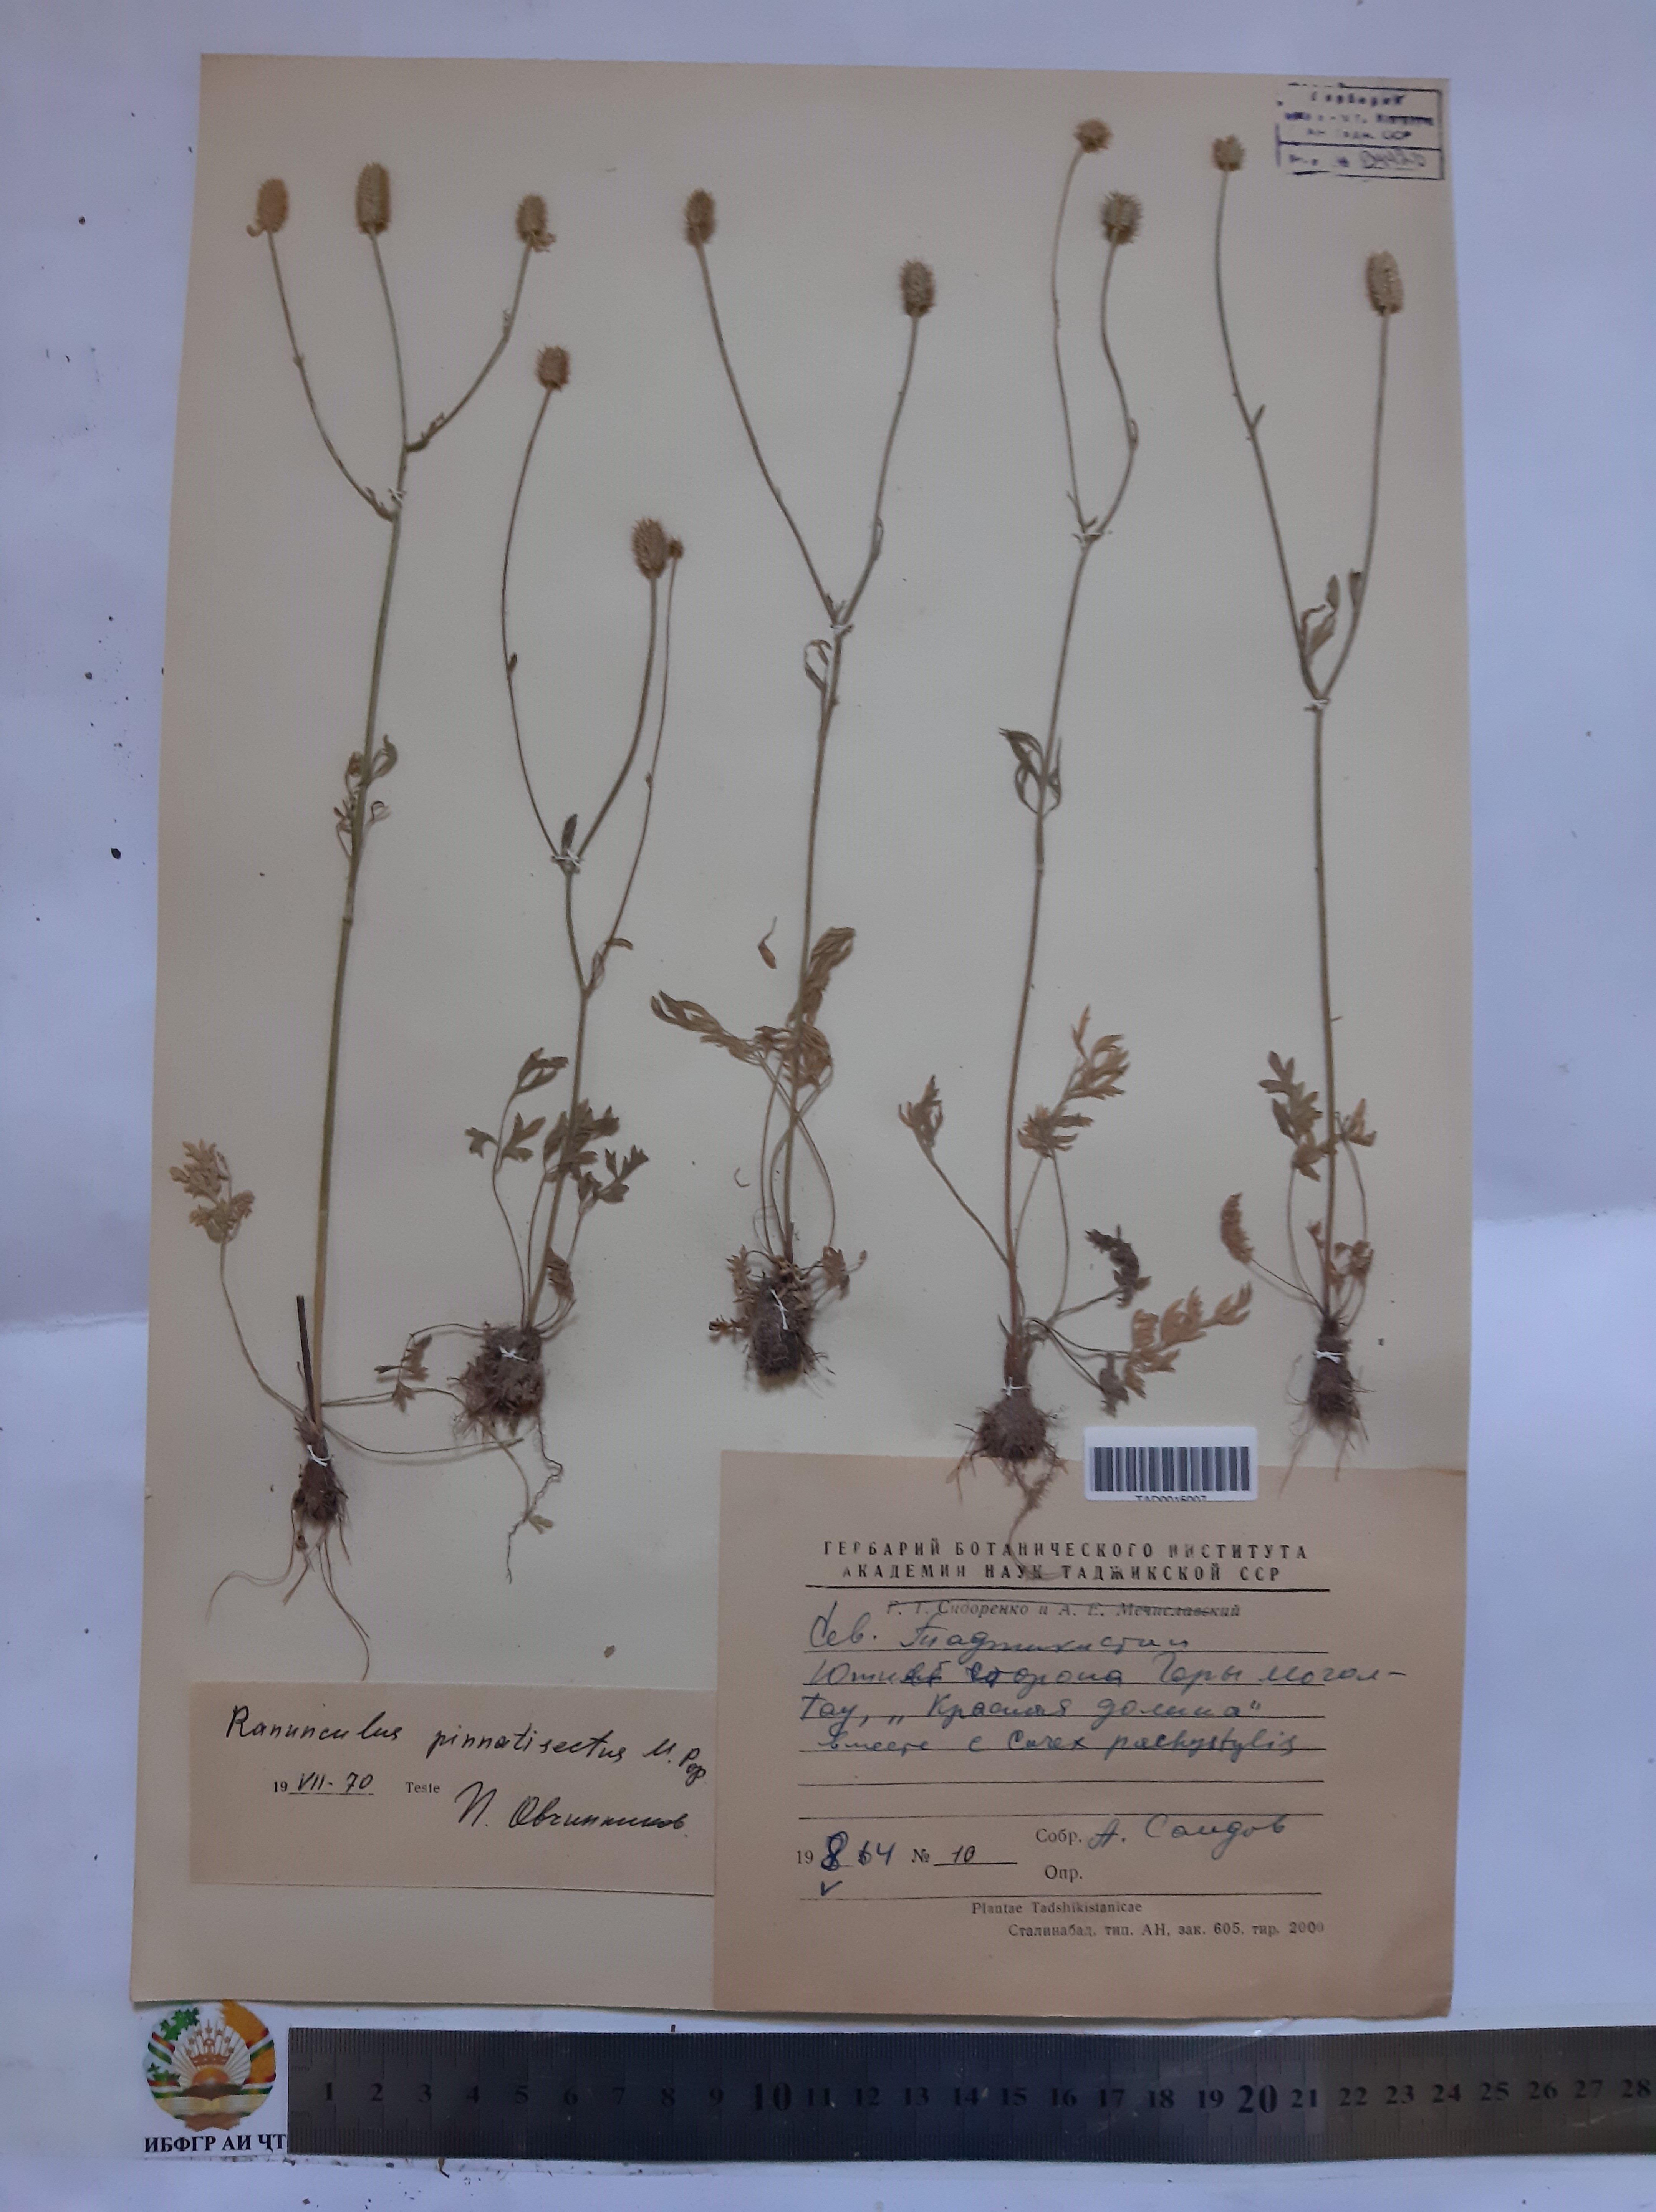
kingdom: Plantae
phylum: Tracheophyta
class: Magnoliopsida
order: Ranunculales
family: Ranunculaceae
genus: Ranunculus
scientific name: Ranunculus pinnatisectus
